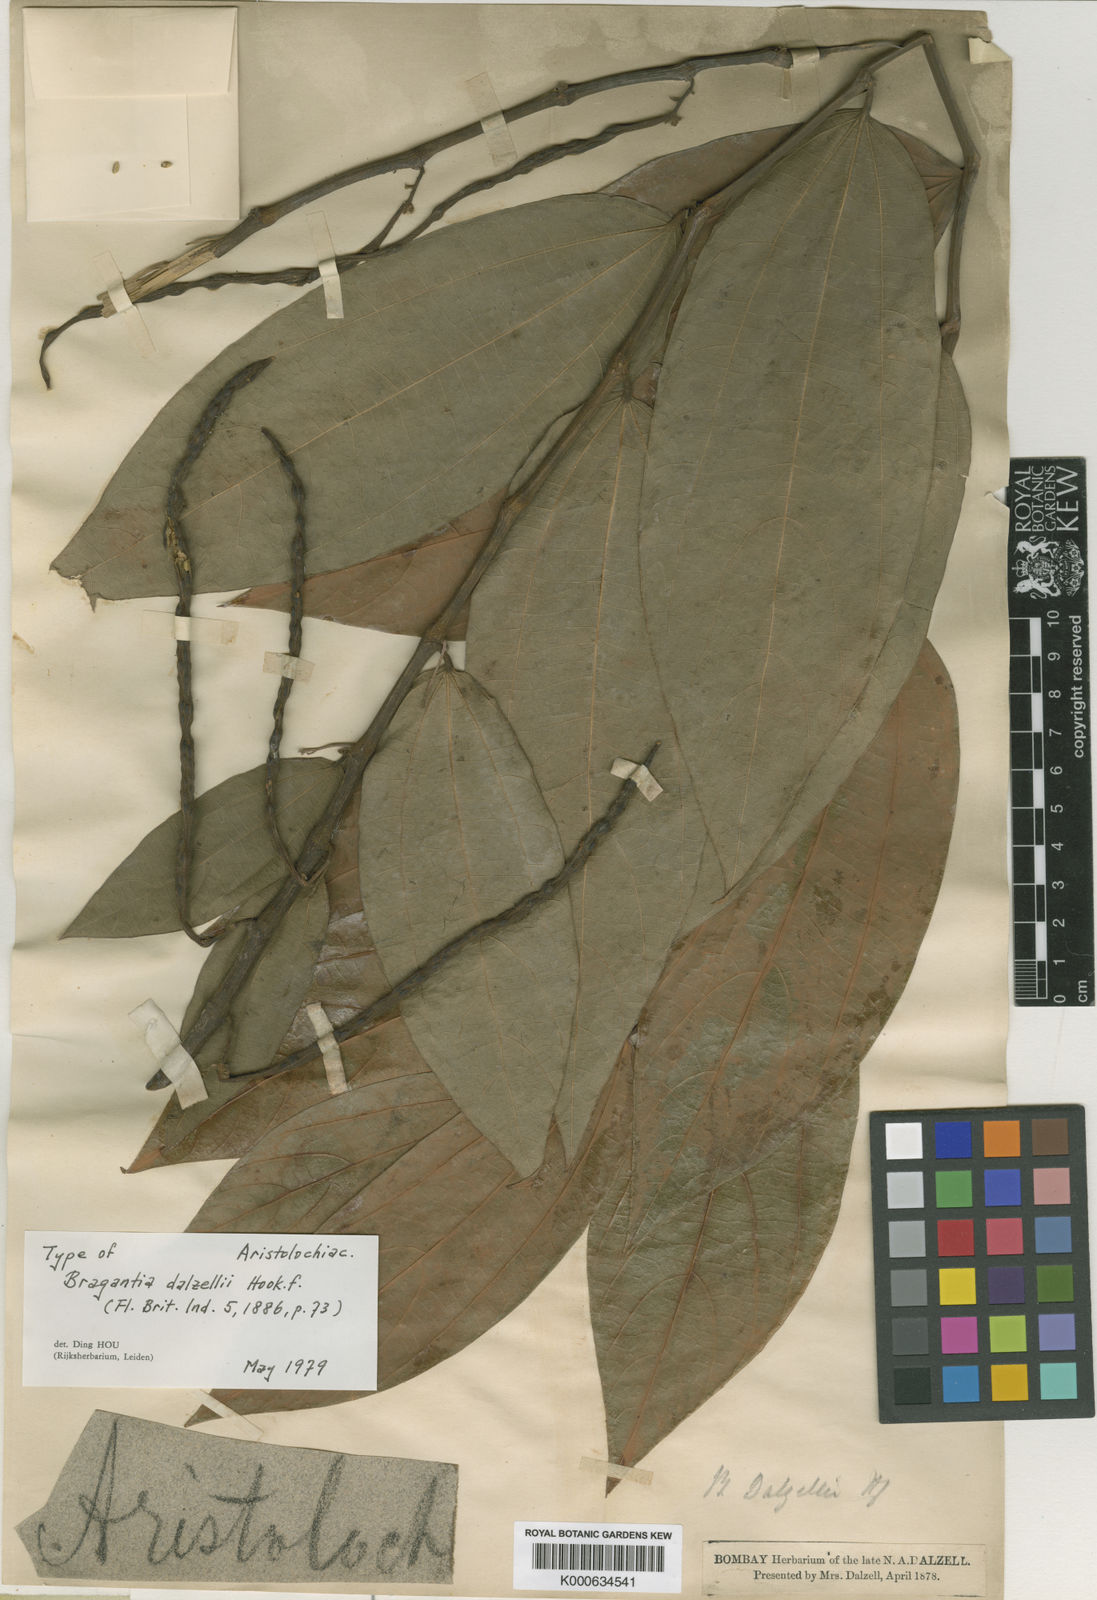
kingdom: Plantae
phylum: Tracheophyta
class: Magnoliopsida
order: Piperales
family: Aristolochiaceae
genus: Thottea
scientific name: Thottea siliquosa
